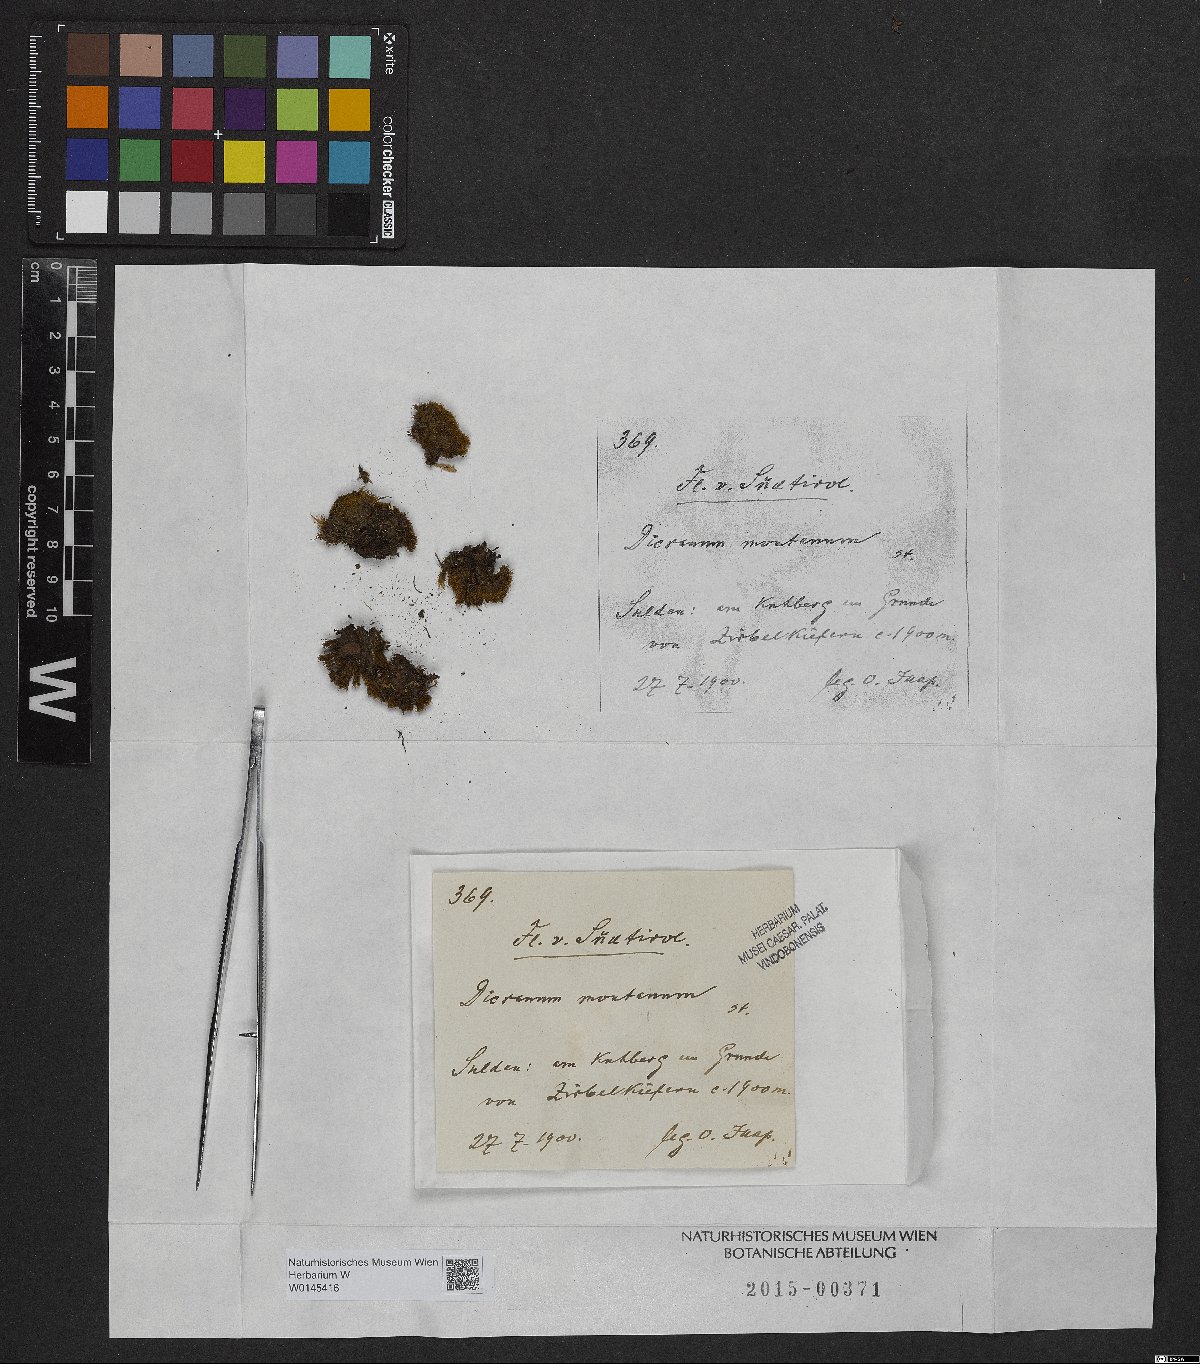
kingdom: Plantae
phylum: Bryophyta
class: Bryopsida
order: Dicranales
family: Dicranaceae
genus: Orthodicranum
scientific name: Orthodicranum montanum
